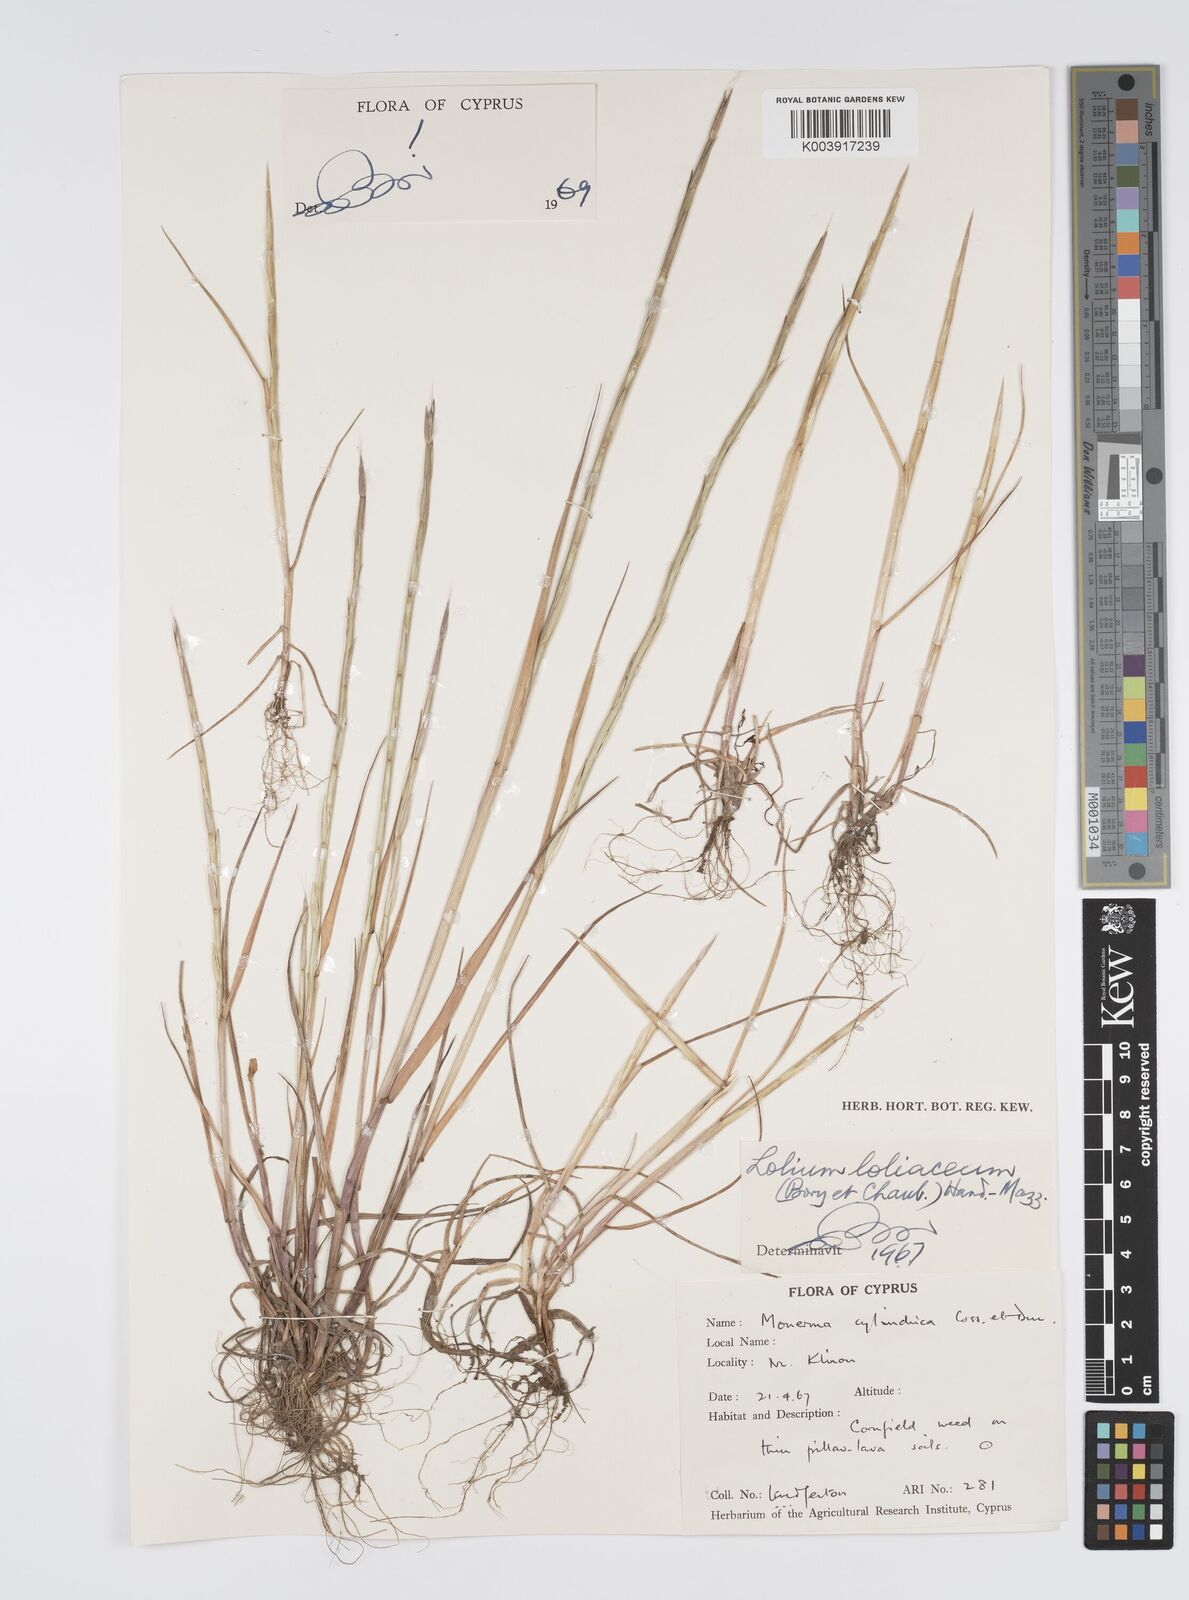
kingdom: Plantae
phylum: Tracheophyta
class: Liliopsida
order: Poales
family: Poaceae
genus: Lolium
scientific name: Lolium rigidum
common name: Wimmera ryegrass
